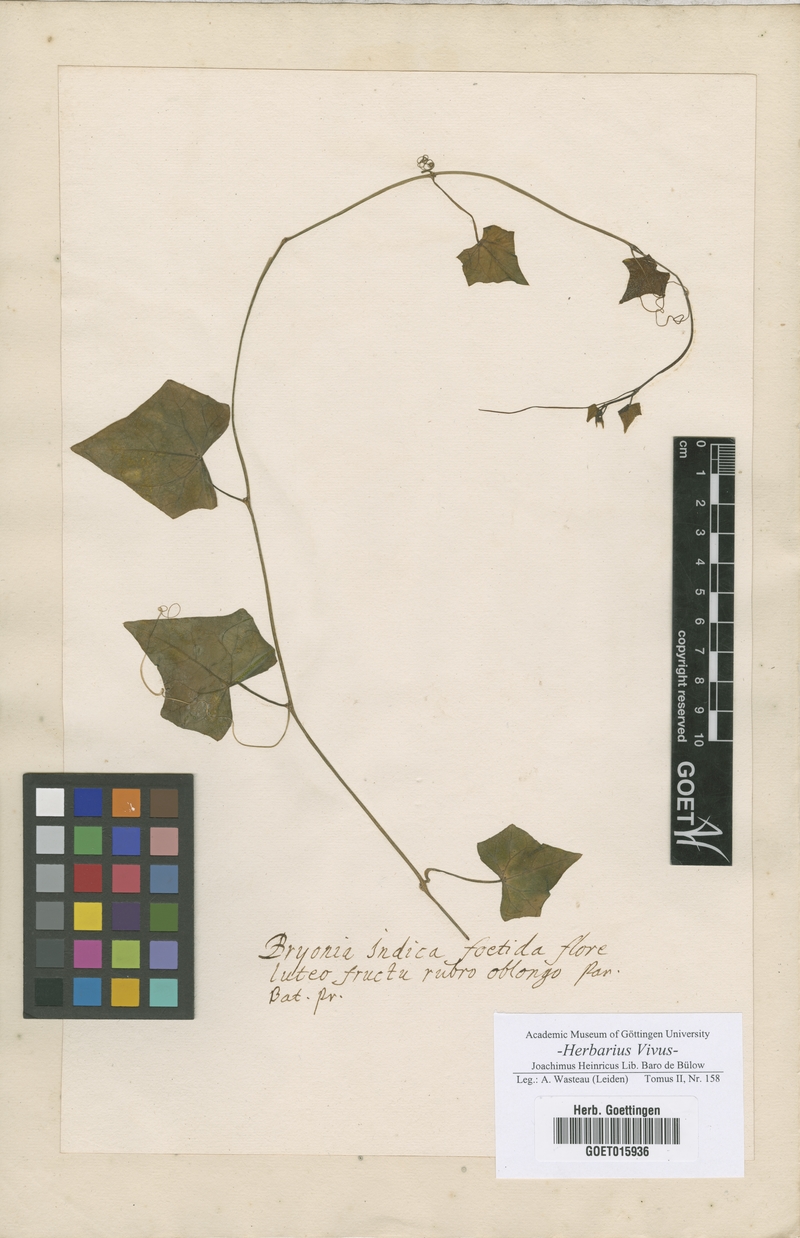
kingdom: Plantae
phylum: Tracheophyta
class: Magnoliopsida
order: Cucurbitales
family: Cucurbitaceae
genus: Bryonia
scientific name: Bryonia
